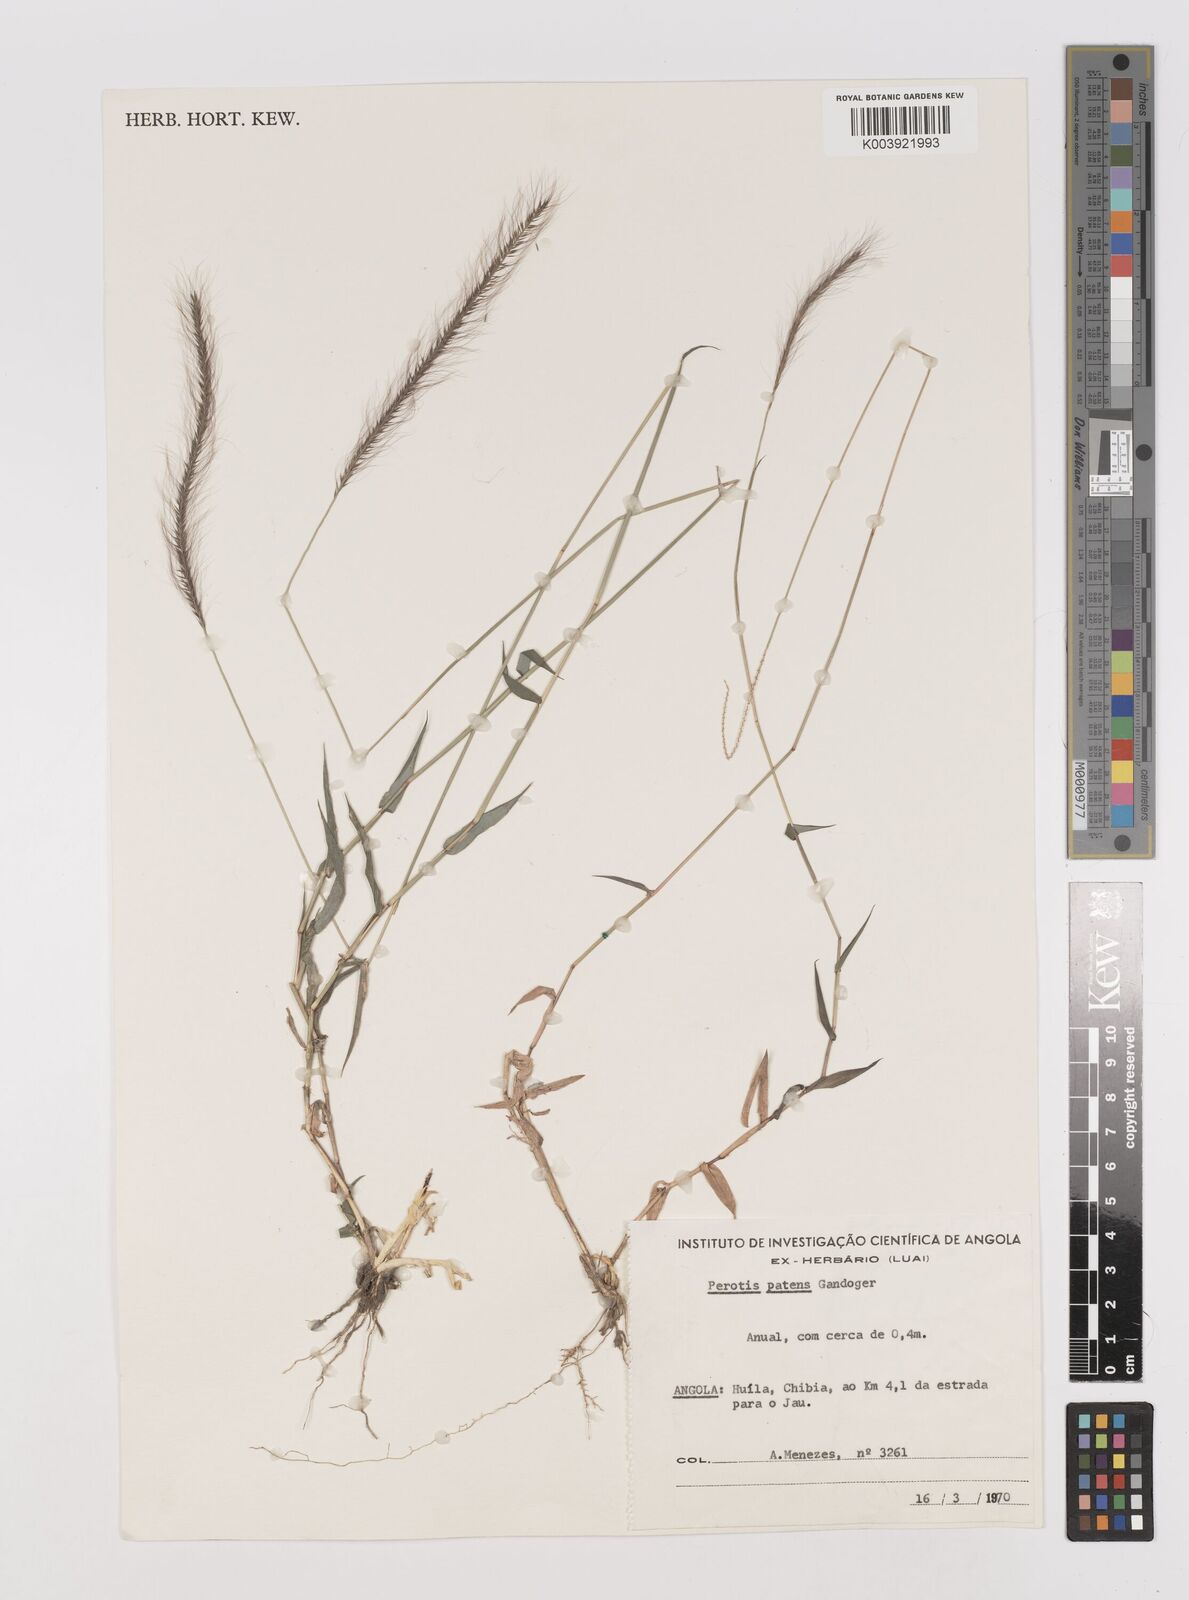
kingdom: Plantae
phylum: Tracheophyta
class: Liliopsida
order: Poales
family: Poaceae
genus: Perotis
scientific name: Perotis patens
